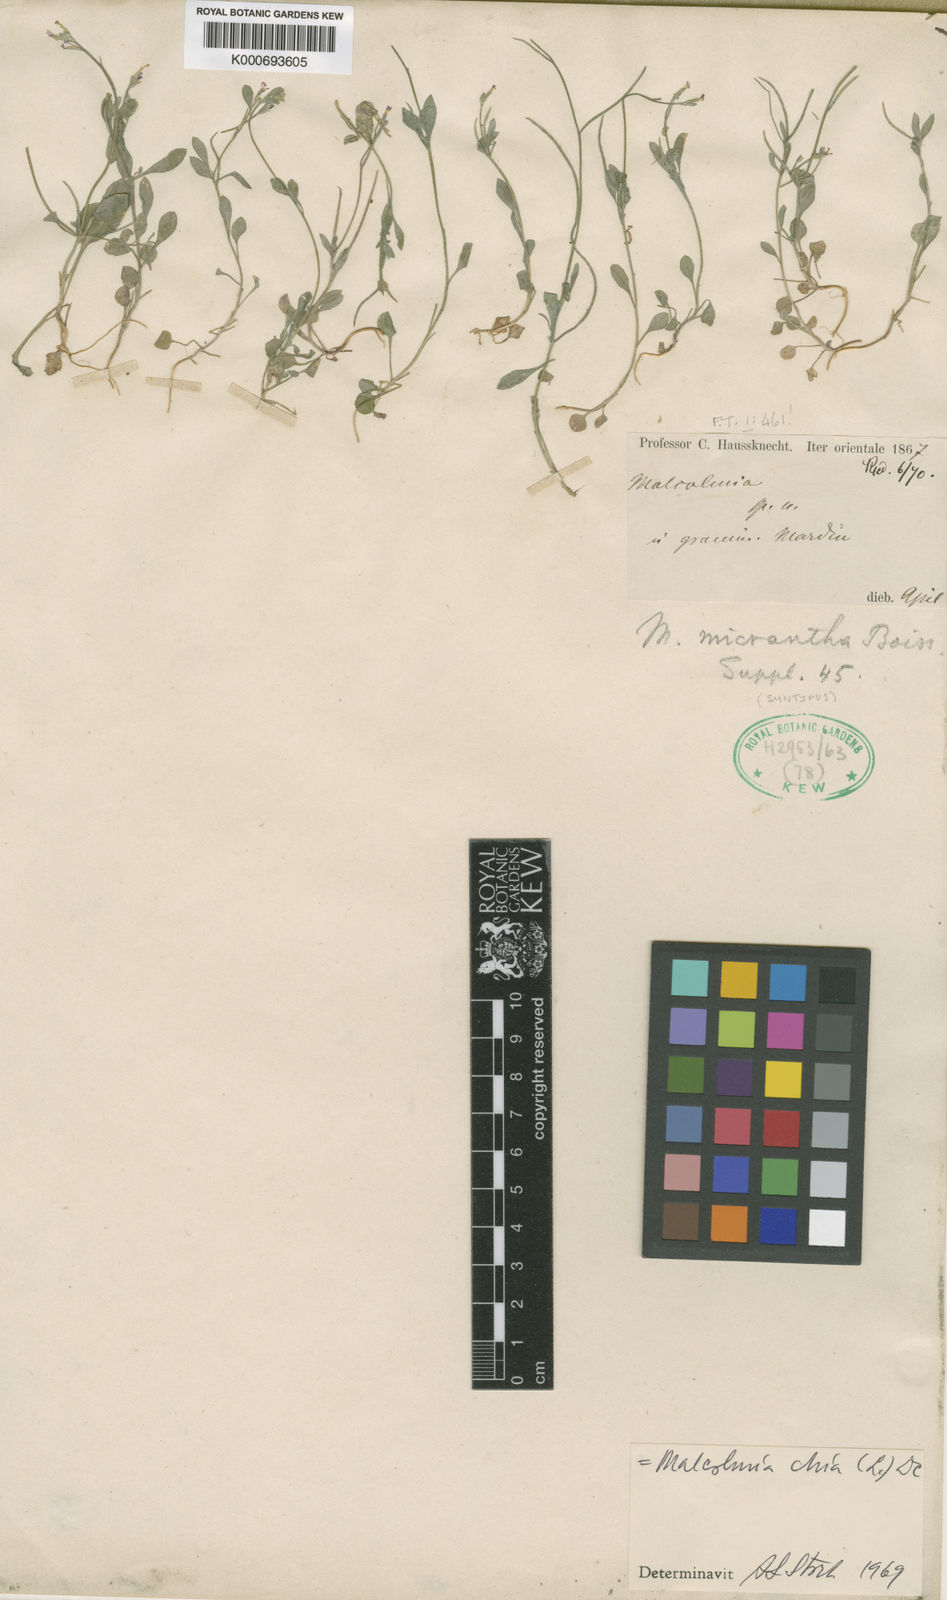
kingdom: Plantae
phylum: Tracheophyta
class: Magnoliopsida
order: Brassicales
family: Brassicaceae
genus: Malcolmia
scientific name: Malcolmia chia
